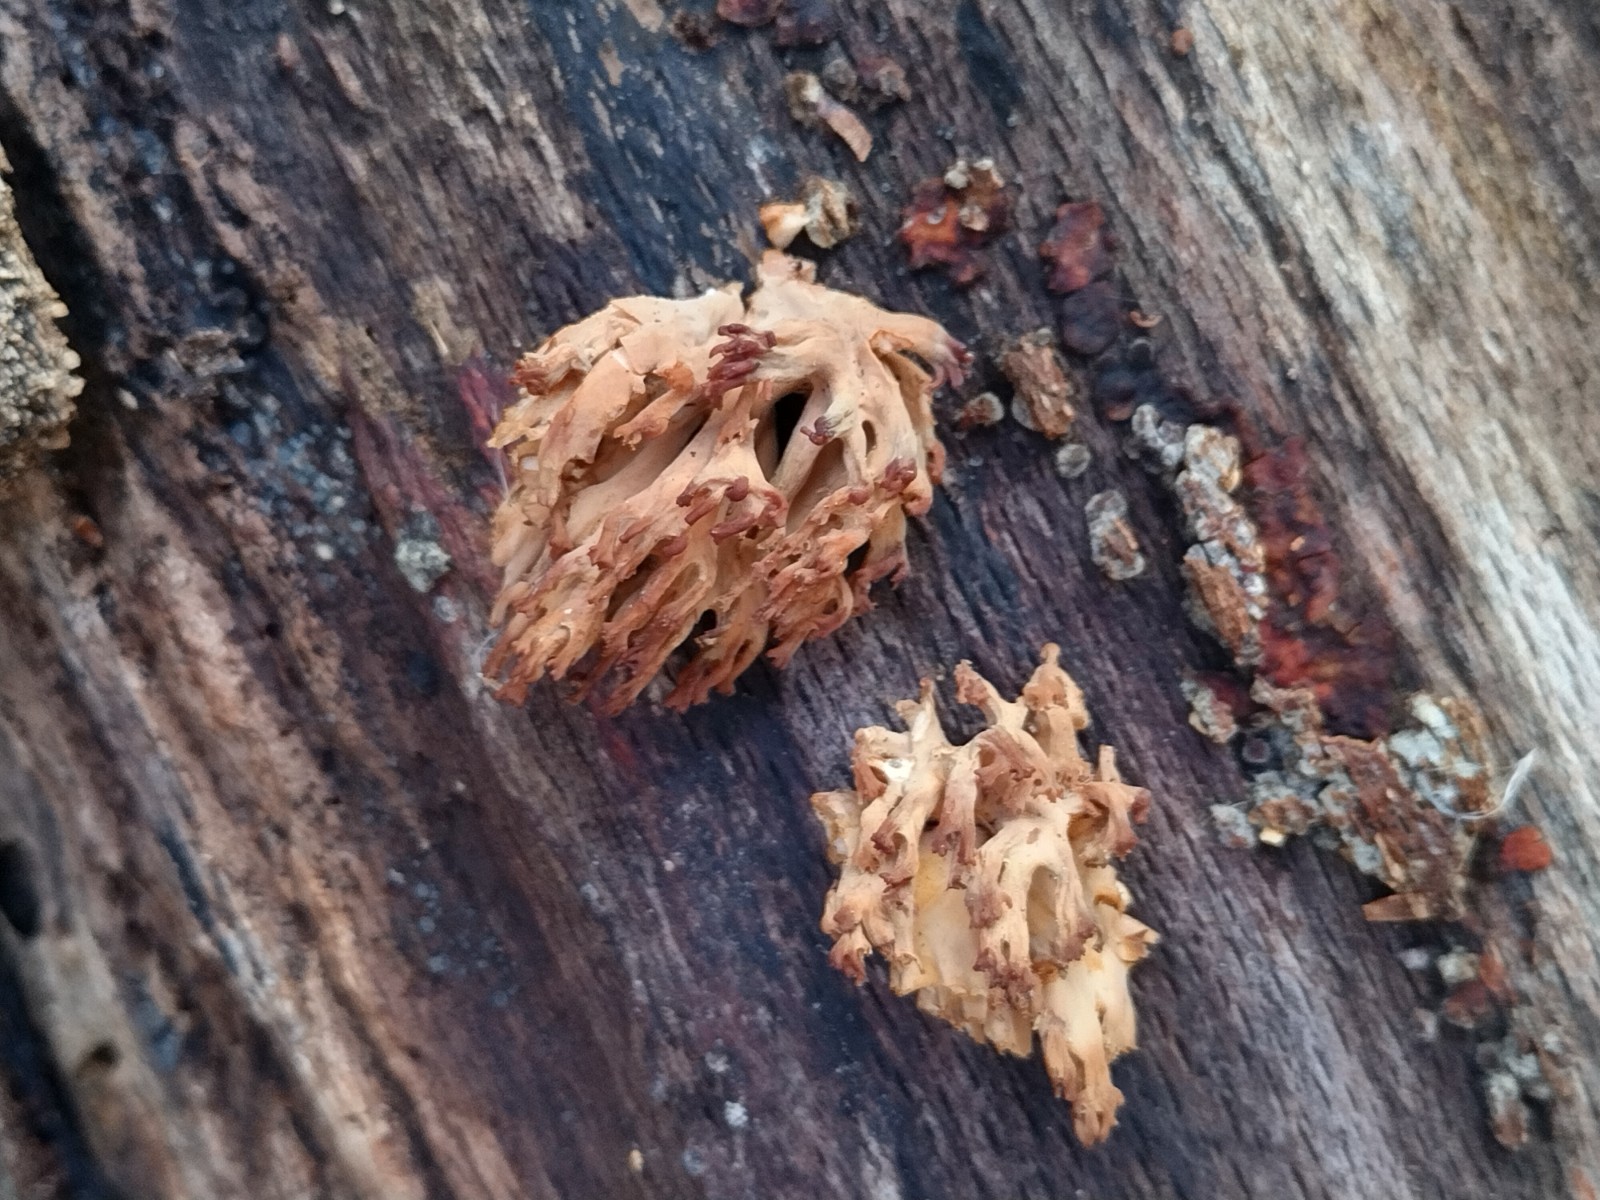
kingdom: Fungi
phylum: Basidiomycota
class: Agaricomycetes
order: Gomphales
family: Gomphaceae
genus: Ramaria
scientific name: Ramaria stricta
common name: rank koralsvamp
